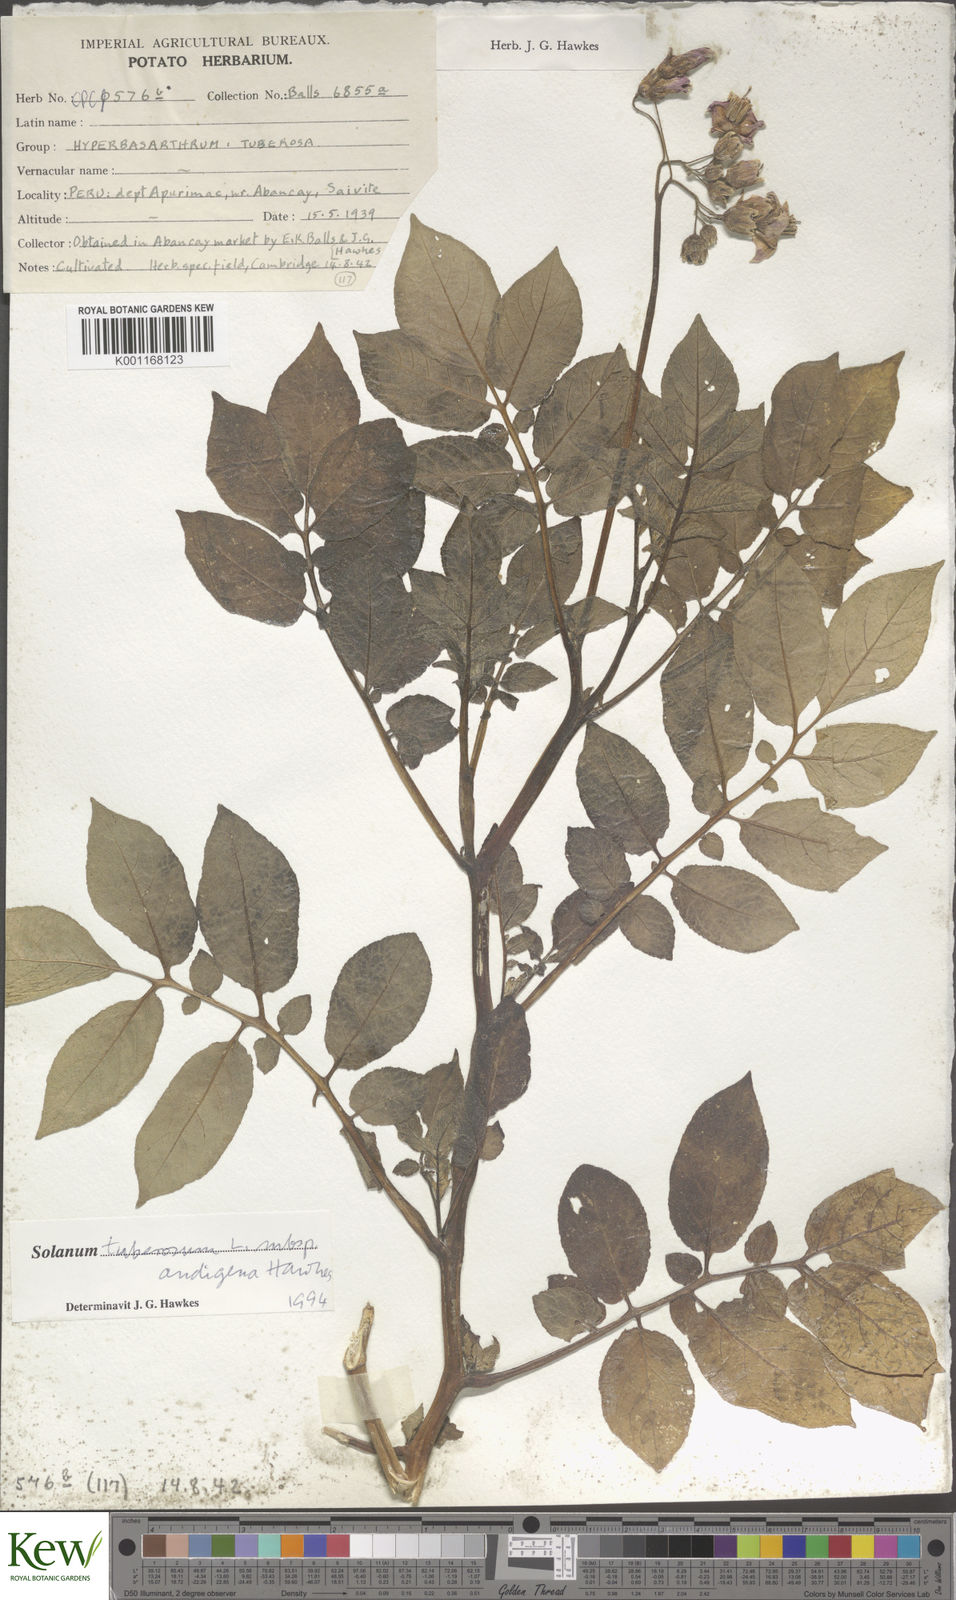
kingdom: Plantae
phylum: Tracheophyta
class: Magnoliopsida
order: Solanales
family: Solanaceae
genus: Solanum
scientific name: Solanum tuberosum
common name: Potato
